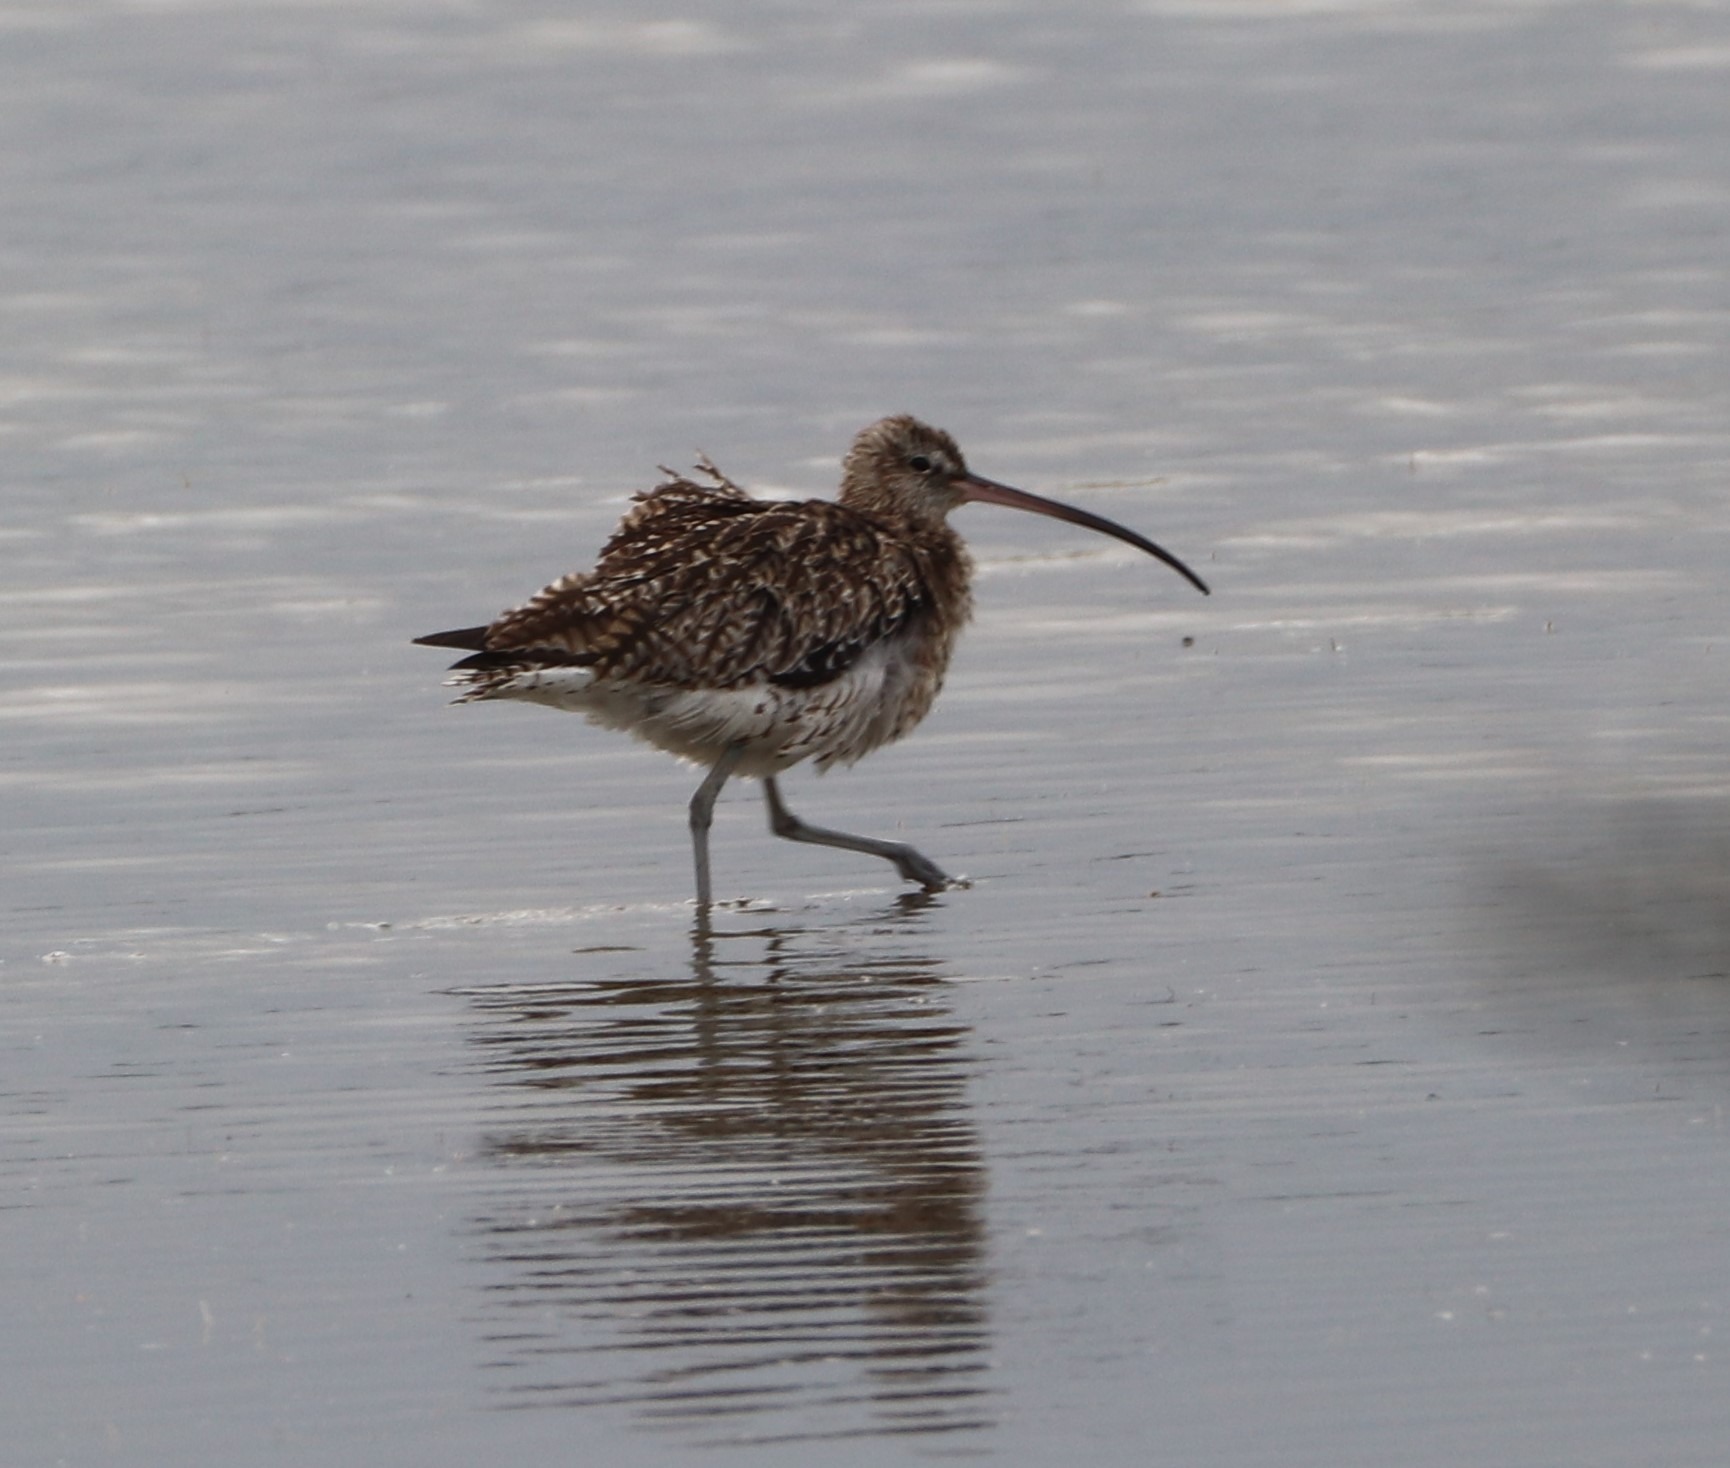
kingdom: Animalia
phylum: Chordata
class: Aves
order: Charadriiformes
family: Scolopacidae
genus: Numenius
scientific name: Numenius arquata
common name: Storspove
